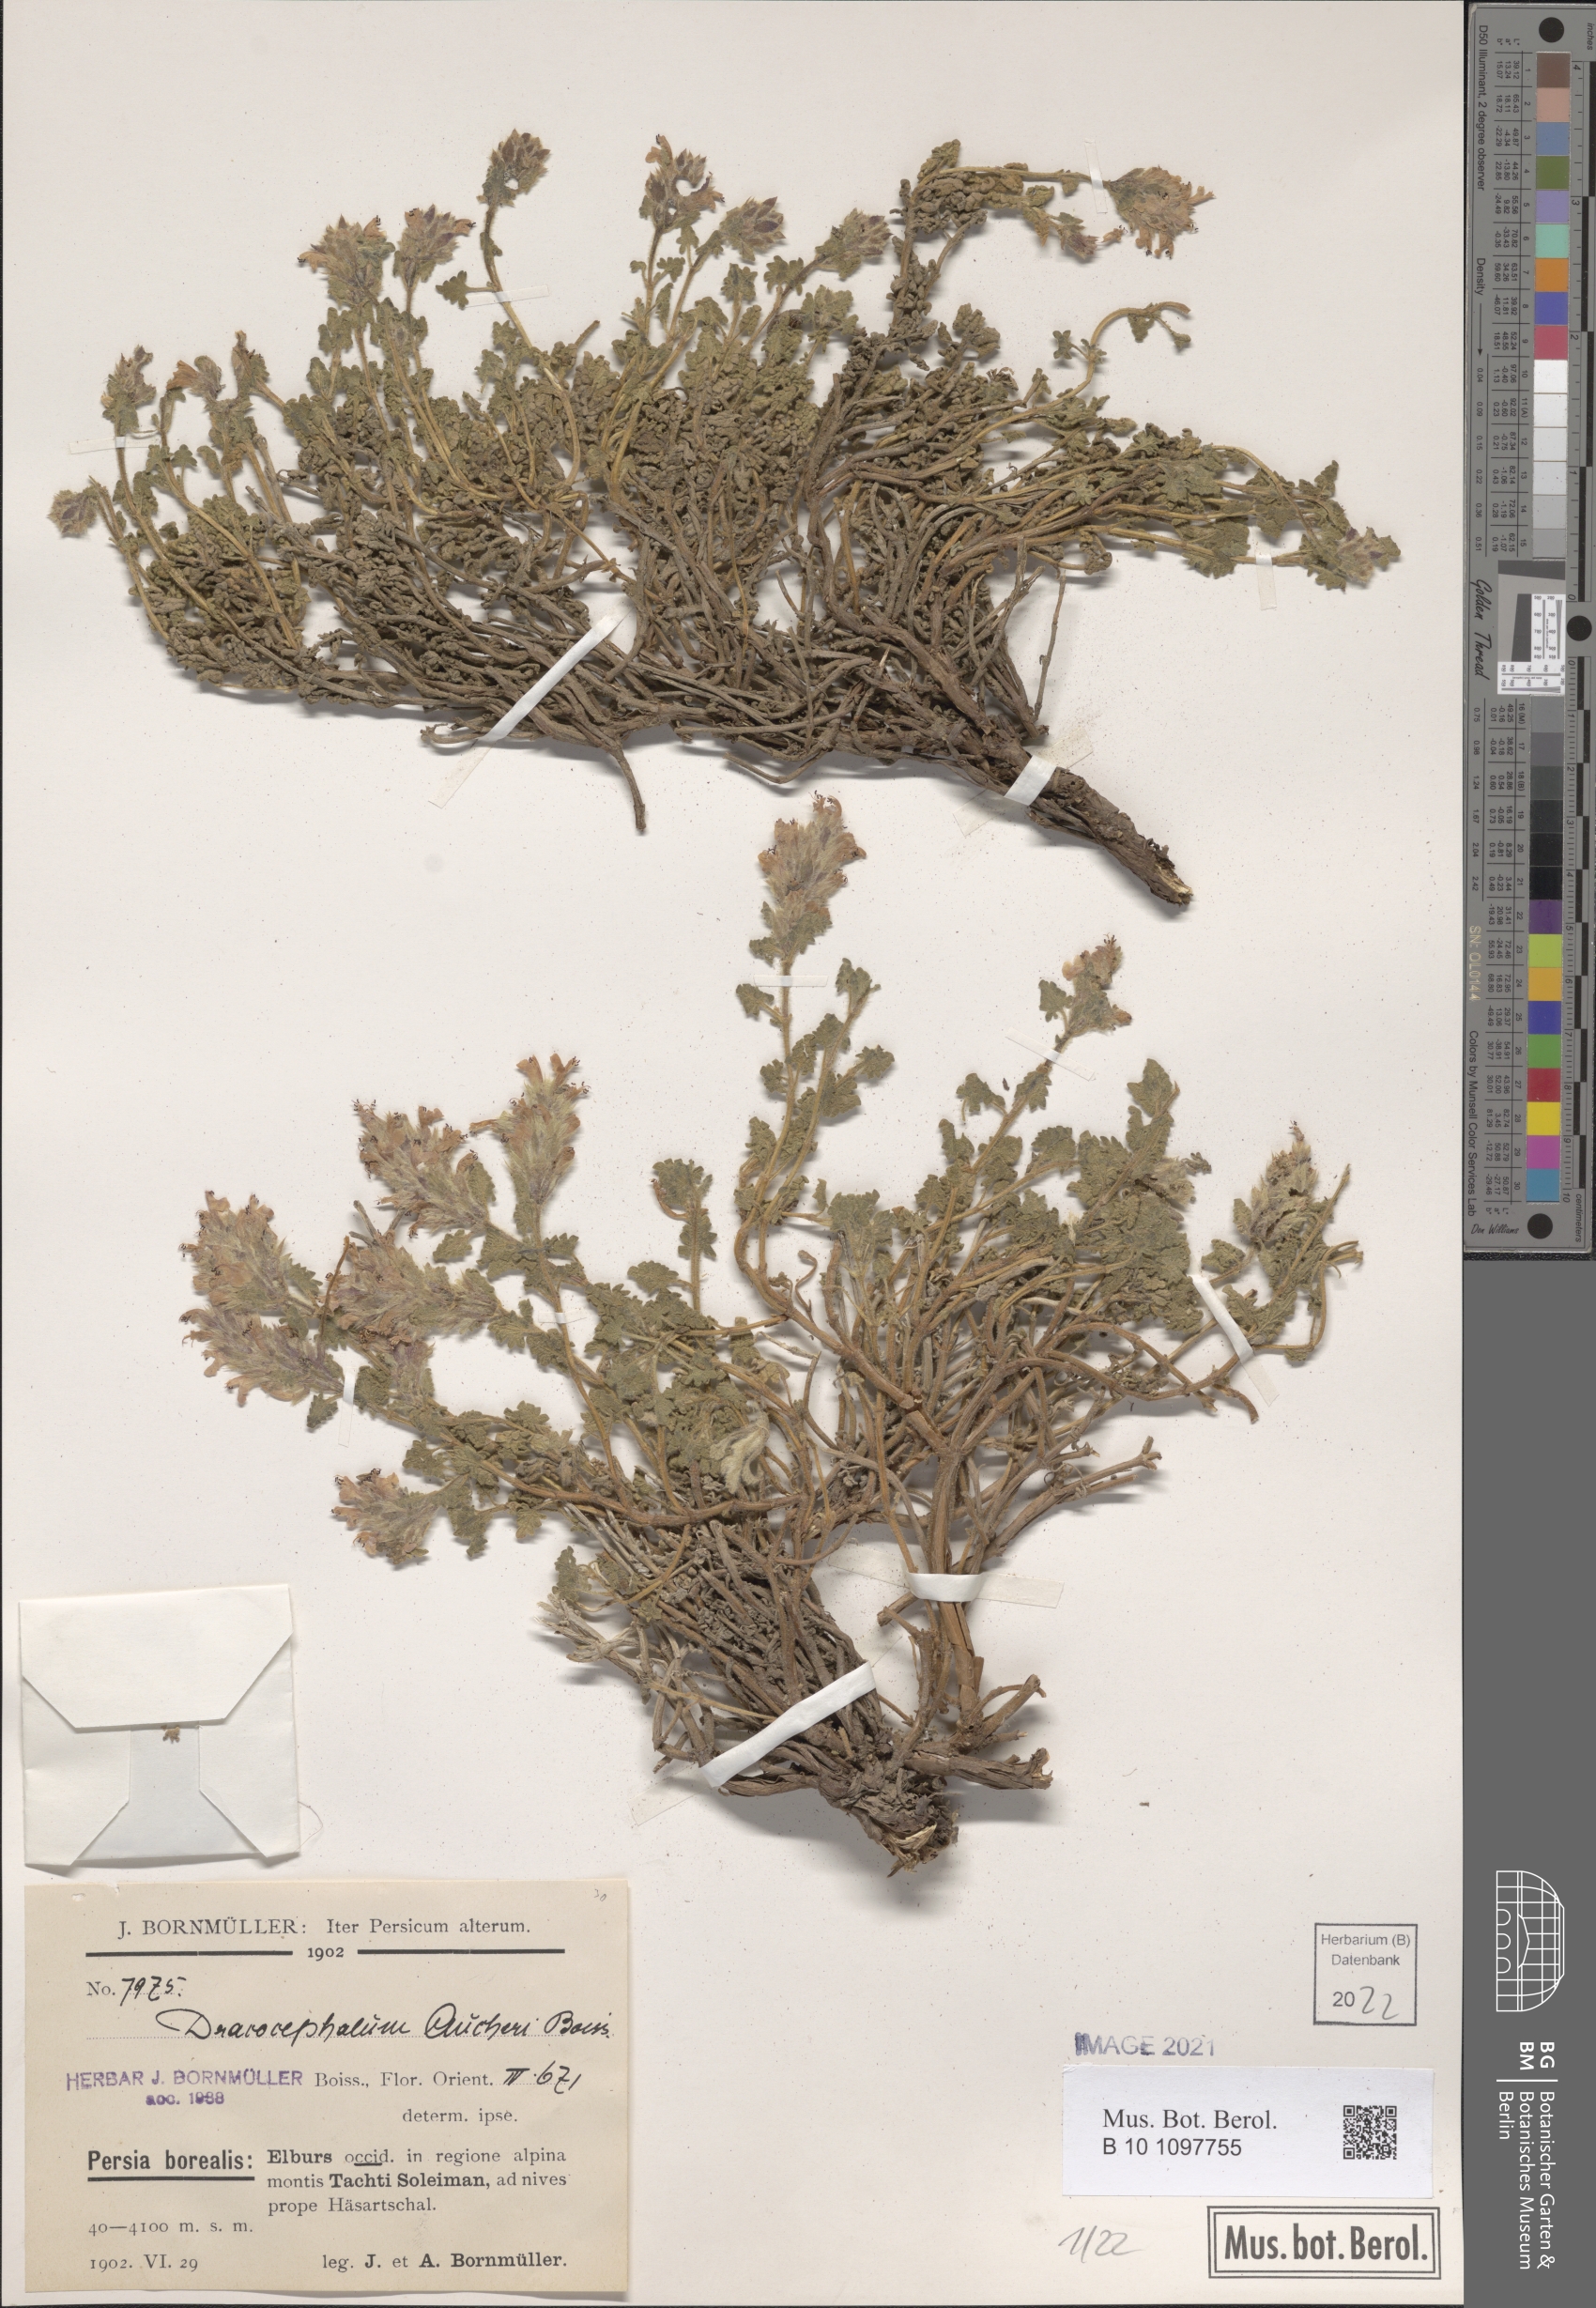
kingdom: Plantae
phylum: Tracheophyta
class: Magnoliopsida
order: Lamiales
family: Lamiaceae
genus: Dracocephalum
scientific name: Dracocephalum aucheri
